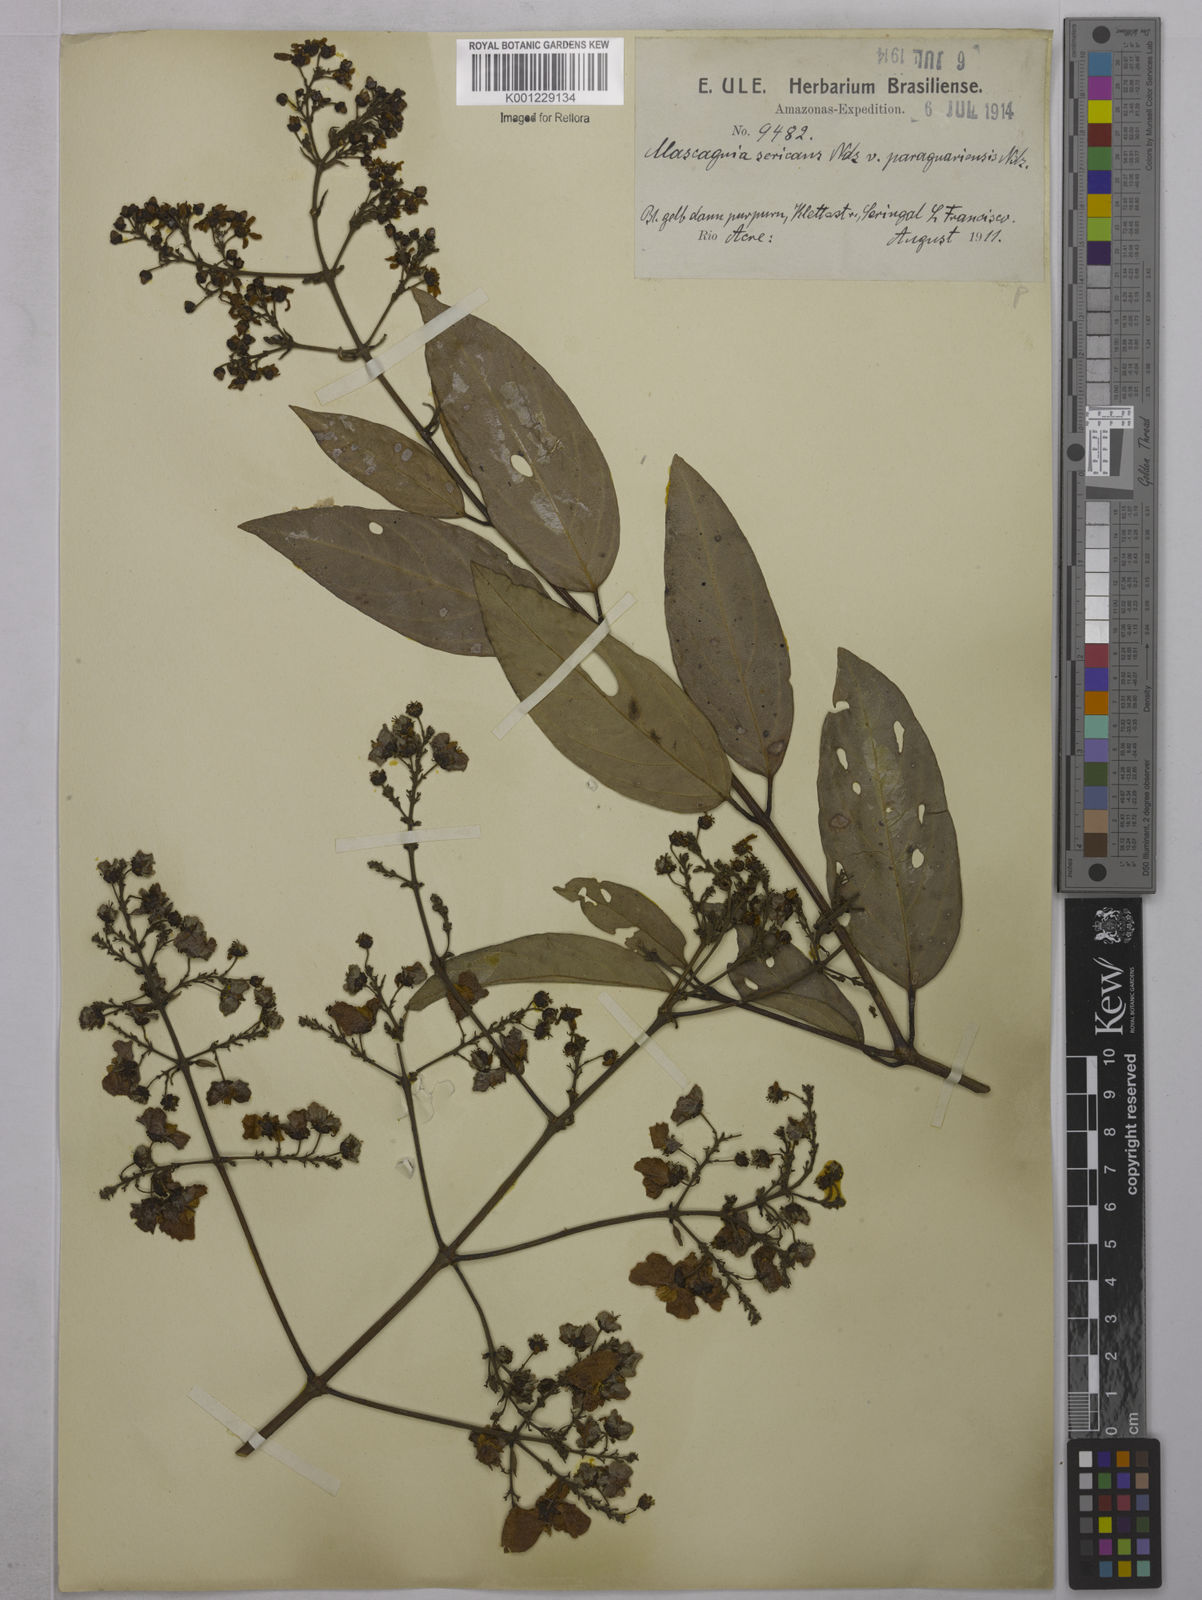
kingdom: Plantae
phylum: Tracheophyta
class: Magnoliopsida
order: Malpighiales
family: Malpighiaceae
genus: Niedenzuella
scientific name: Niedenzuella stannea
